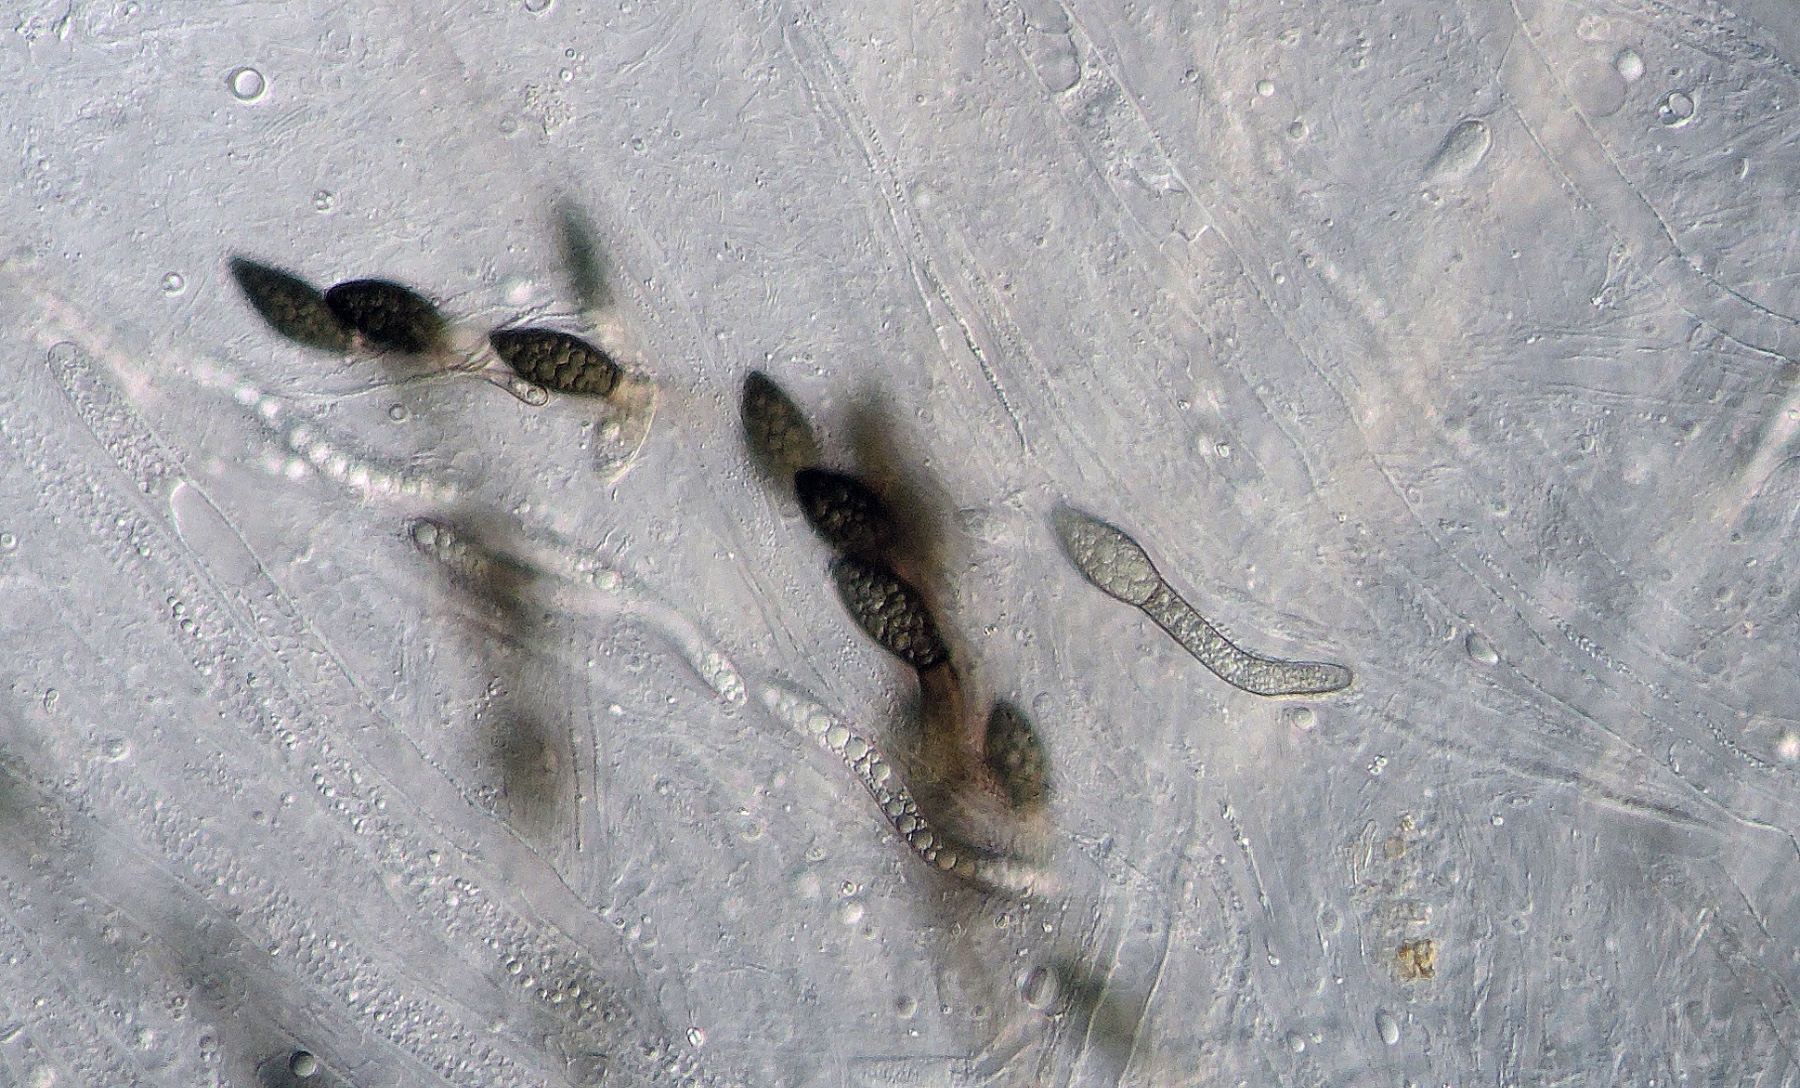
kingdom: Fungi
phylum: Ascomycota
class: Sordariomycetes
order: Sordariales
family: Sordariaceae
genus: Sordaria
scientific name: Sordaria sparganiicola
